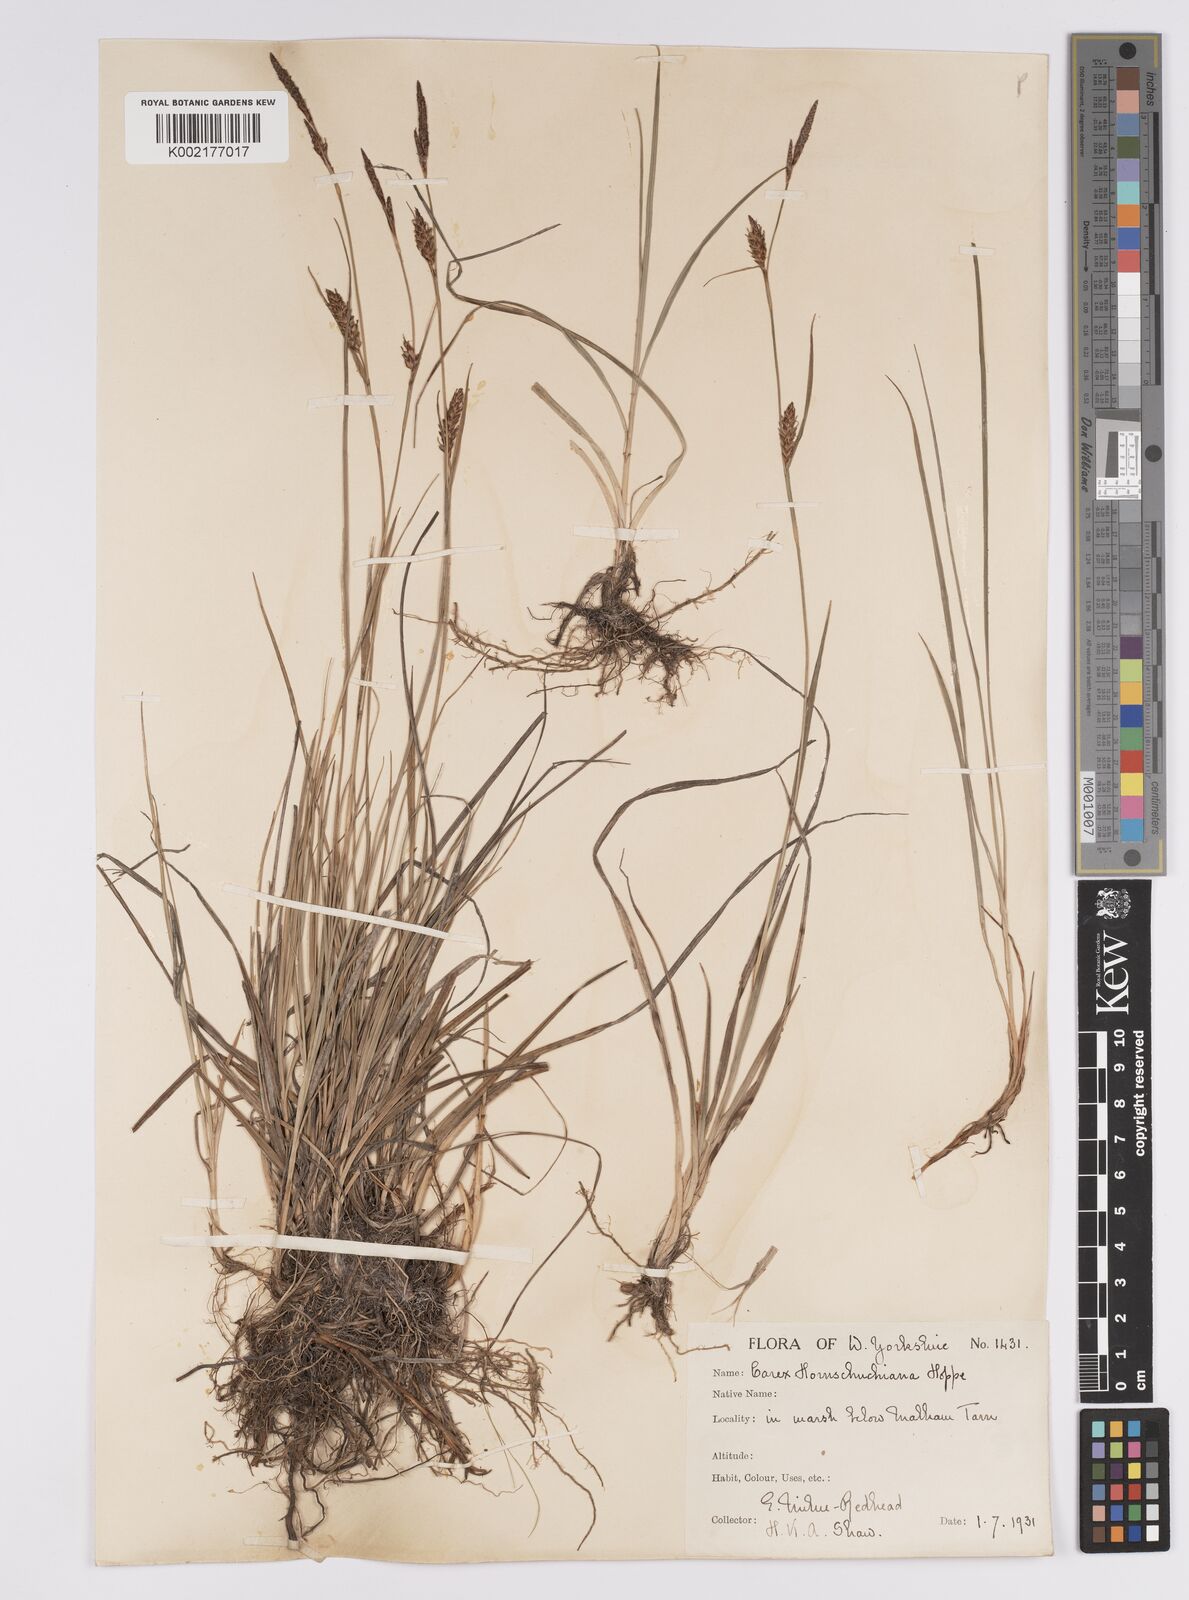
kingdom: Plantae
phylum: Tracheophyta
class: Liliopsida
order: Poales
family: Cyperaceae
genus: Carex
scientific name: Carex hostiana
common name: Tawny sedge
